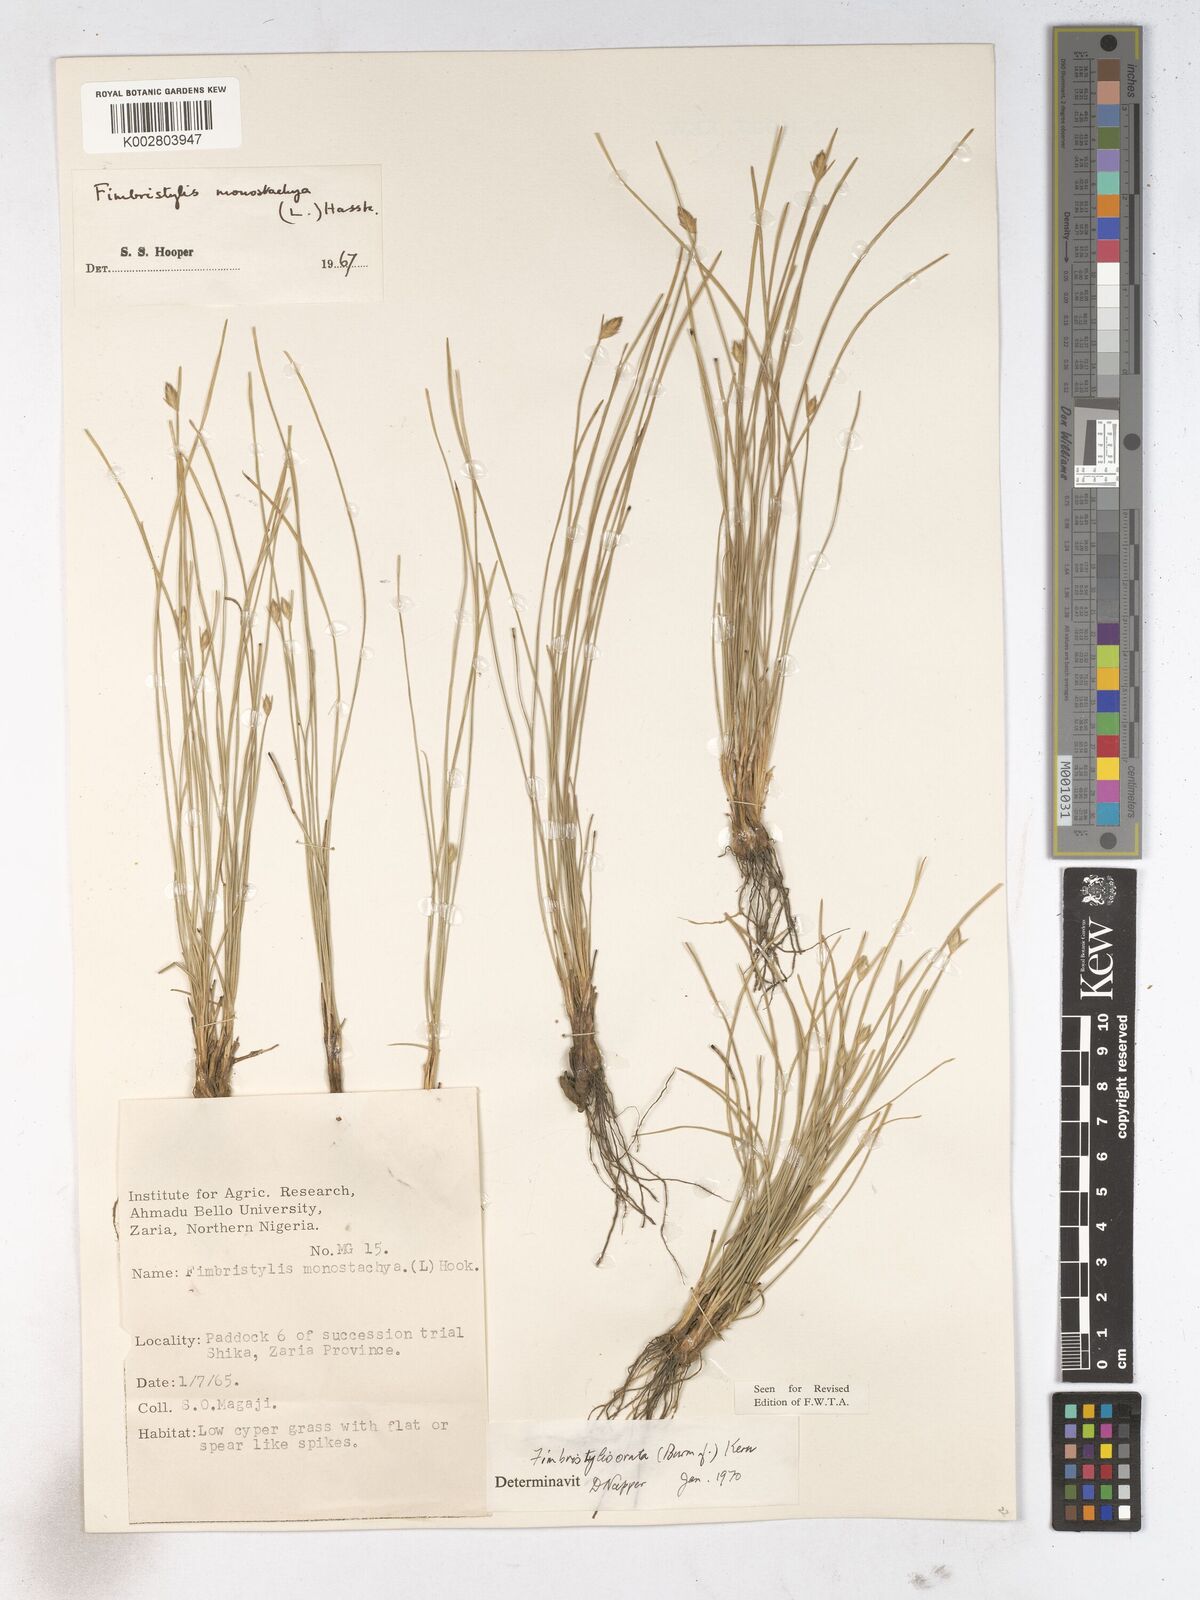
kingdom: Plantae
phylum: Tracheophyta
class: Liliopsida
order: Poales
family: Cyperaceae
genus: Abildgaardia
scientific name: Abildgaardia ovata
